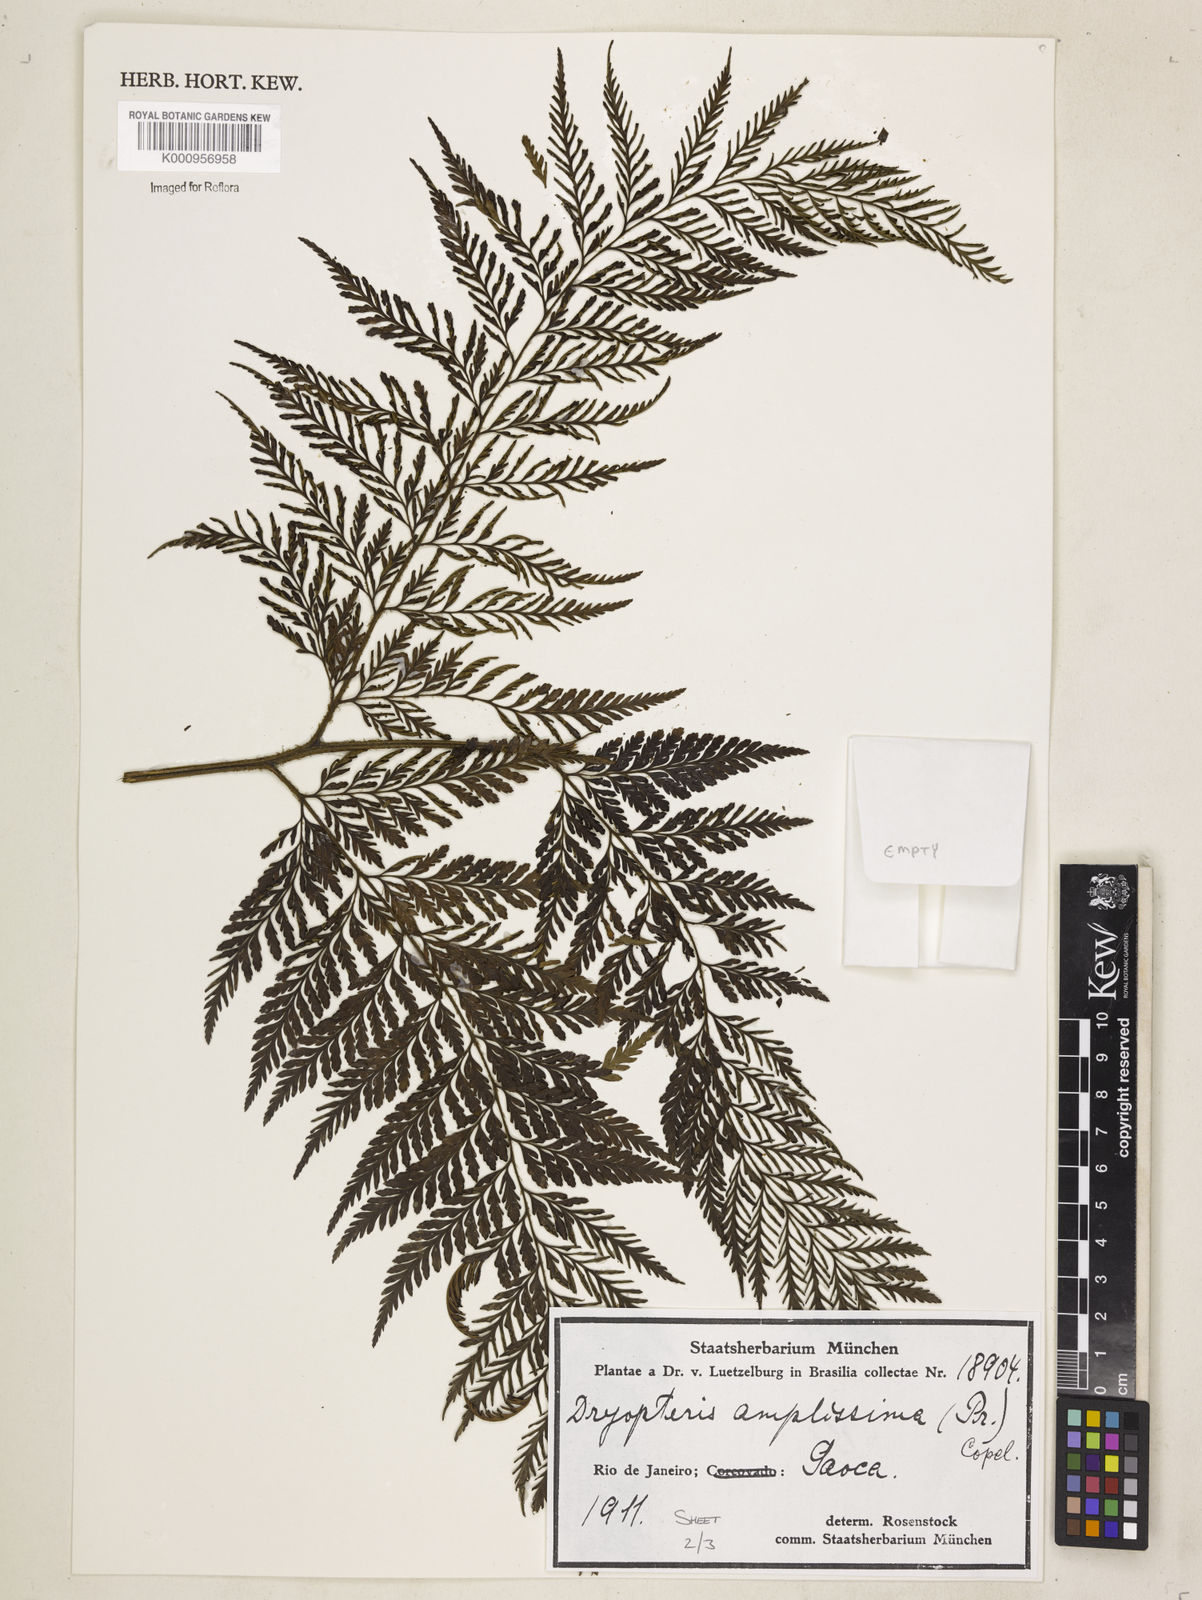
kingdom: Plantae
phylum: Tracheophyta
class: Polypodiopsida
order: Polypodiales
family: Dryopteridaceae
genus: Lastreopsis
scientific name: Lastreopsis amplissima
